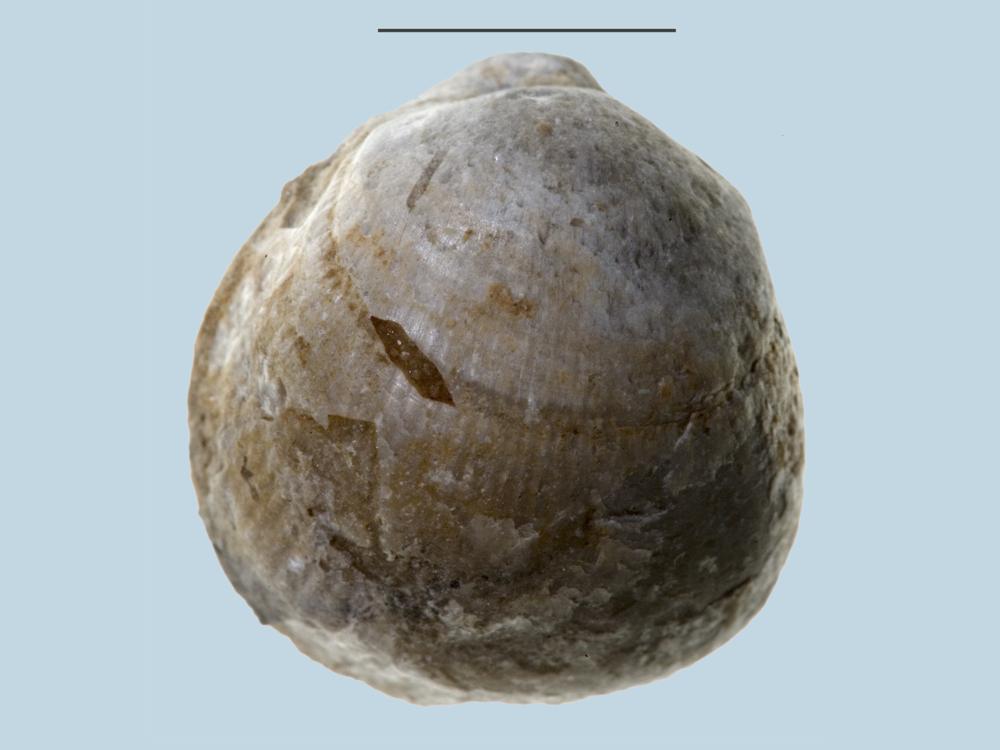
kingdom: Animalia
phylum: Brachiopoda
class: Rhynchonellata
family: Porambonitidae
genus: Porambonites
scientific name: Porambonites
